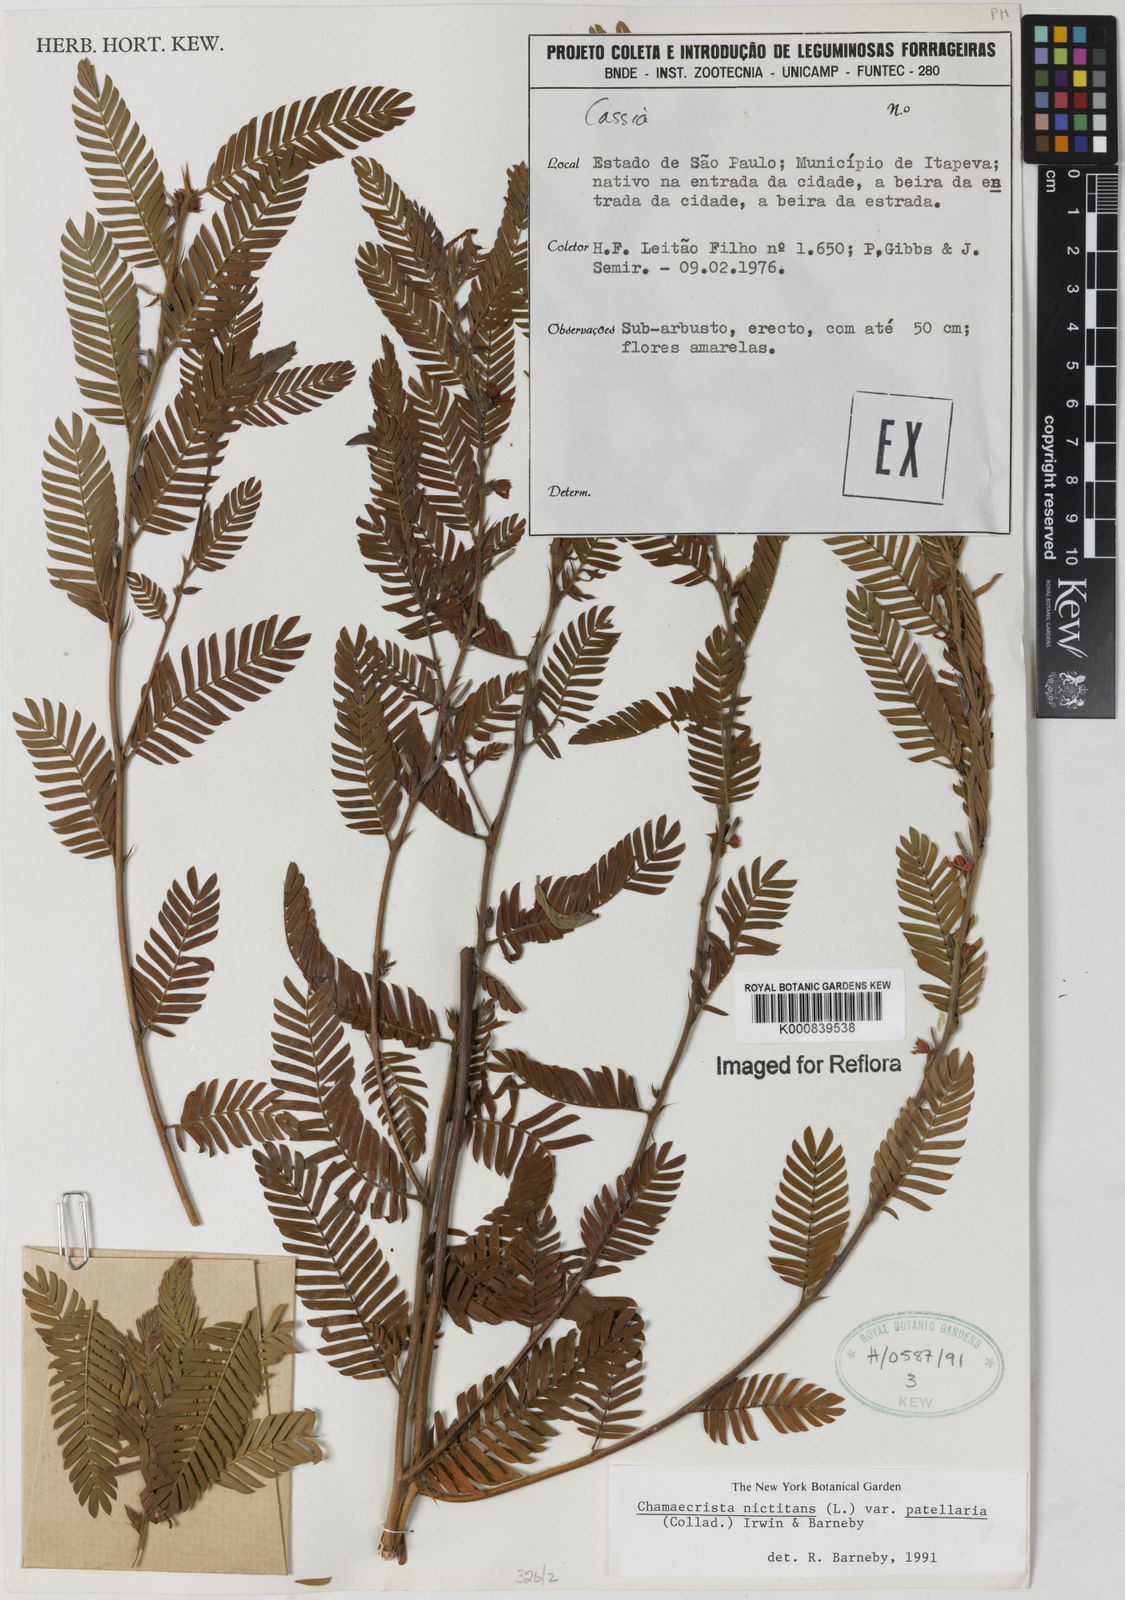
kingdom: Plantae
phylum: Tracheophyta
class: Magnoliopsida
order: Fabales
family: Fabaceae
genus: Chamaecrista
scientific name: Chamaecrista nictitans
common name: Sensitive cassia
